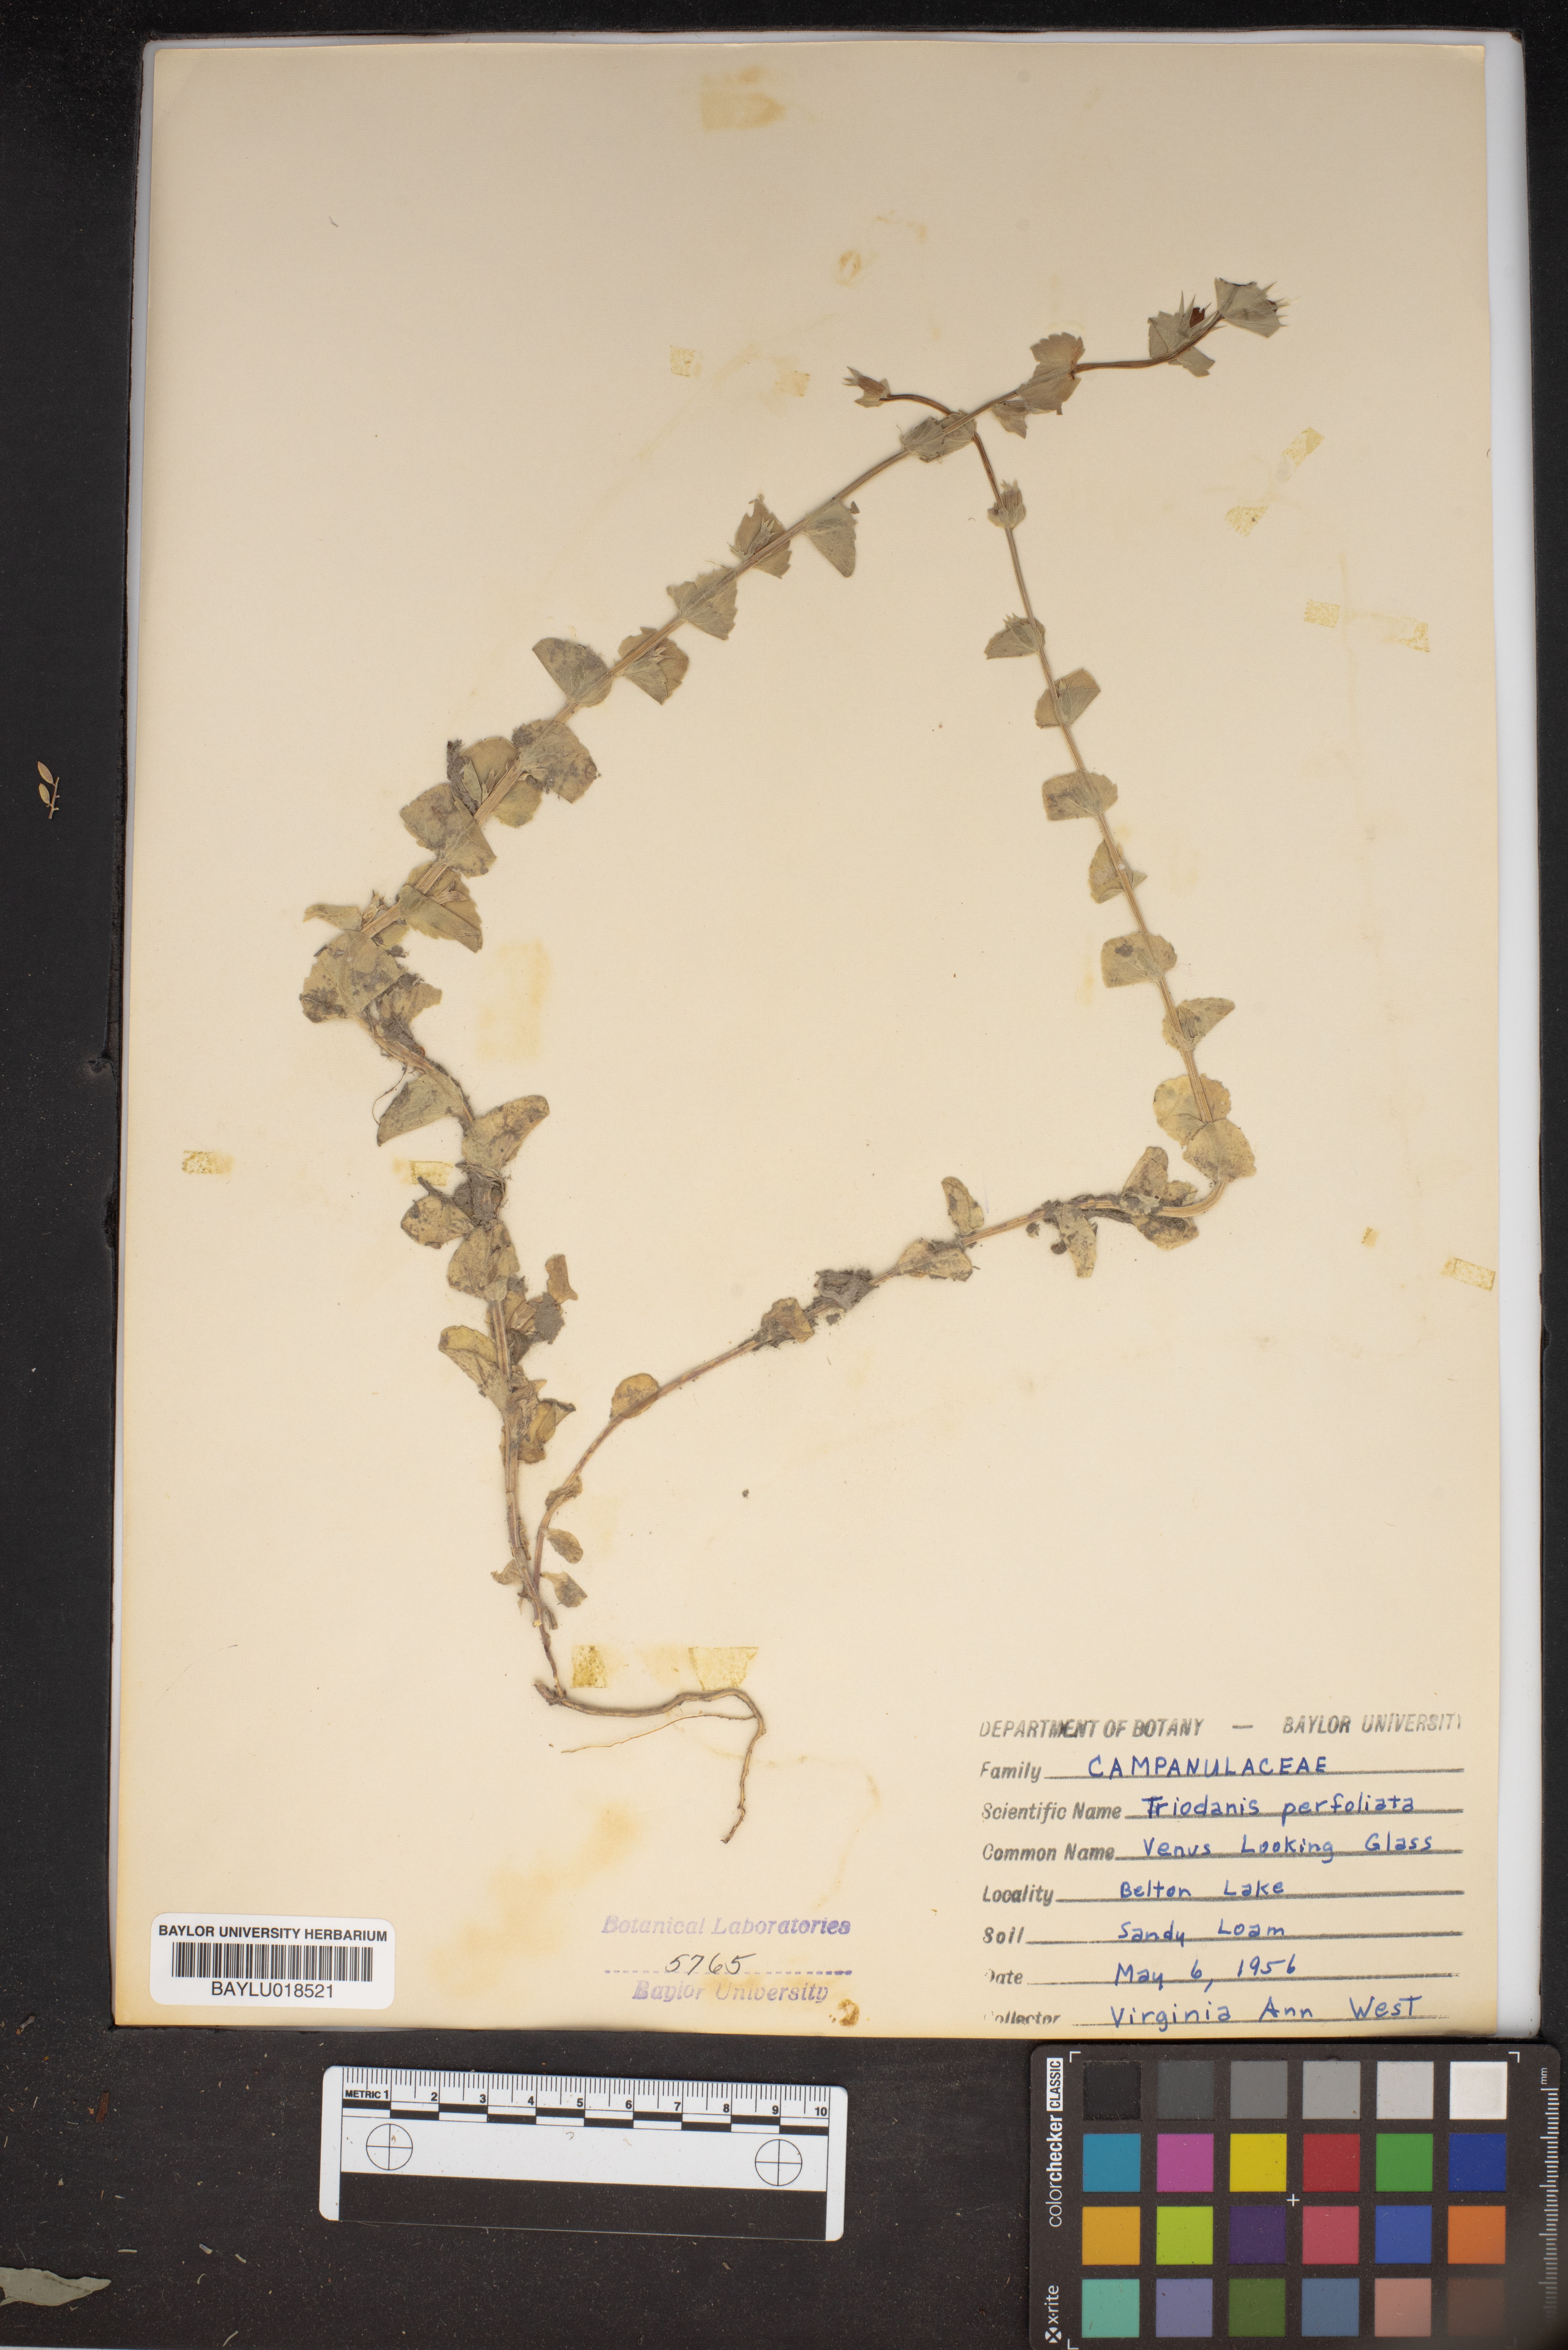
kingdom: Plantae
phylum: Tracheophyta
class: Magnoliopsida
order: Asterales
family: Campanulaceae
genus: Triodanis
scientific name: Triodanis perfoliata
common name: Clasping venus' looking-glass
